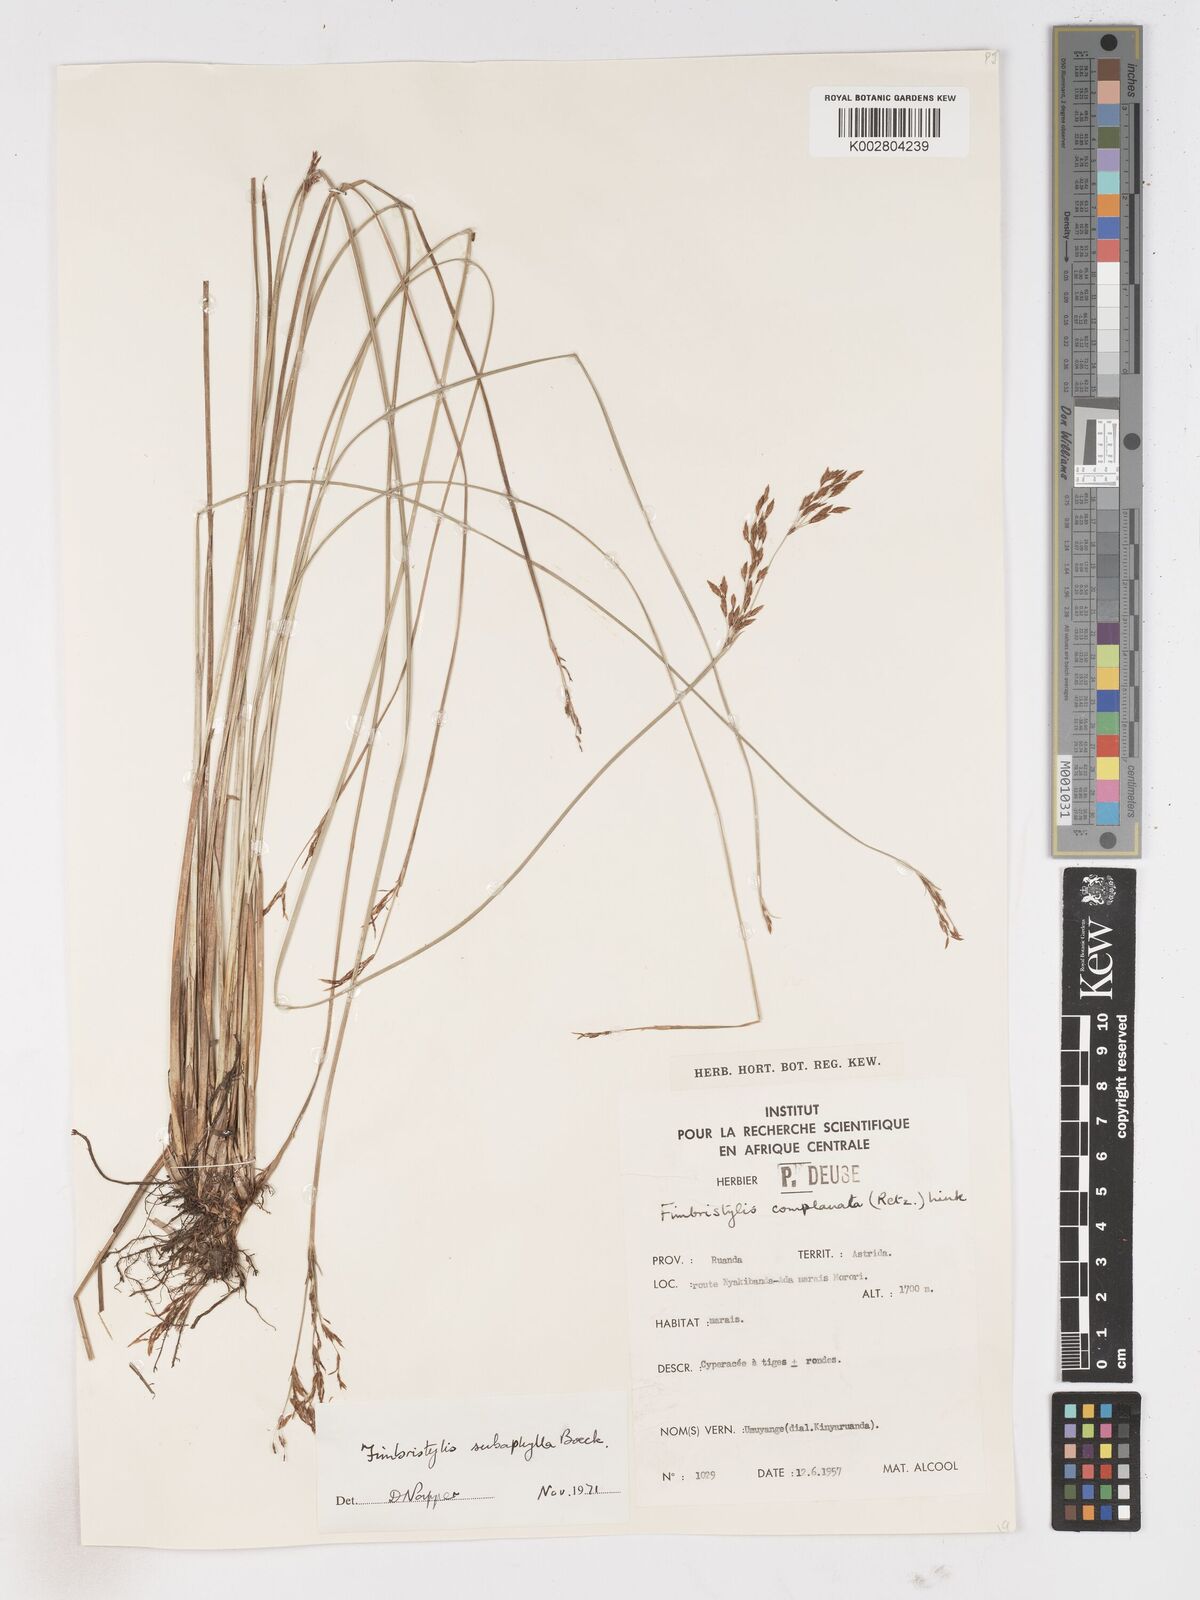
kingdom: Plantae
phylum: Tracheophyta
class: Liliopsida
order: Poales
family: Cyperaceae
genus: Fimbristylis
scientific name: Fimbristylis subaphylla
